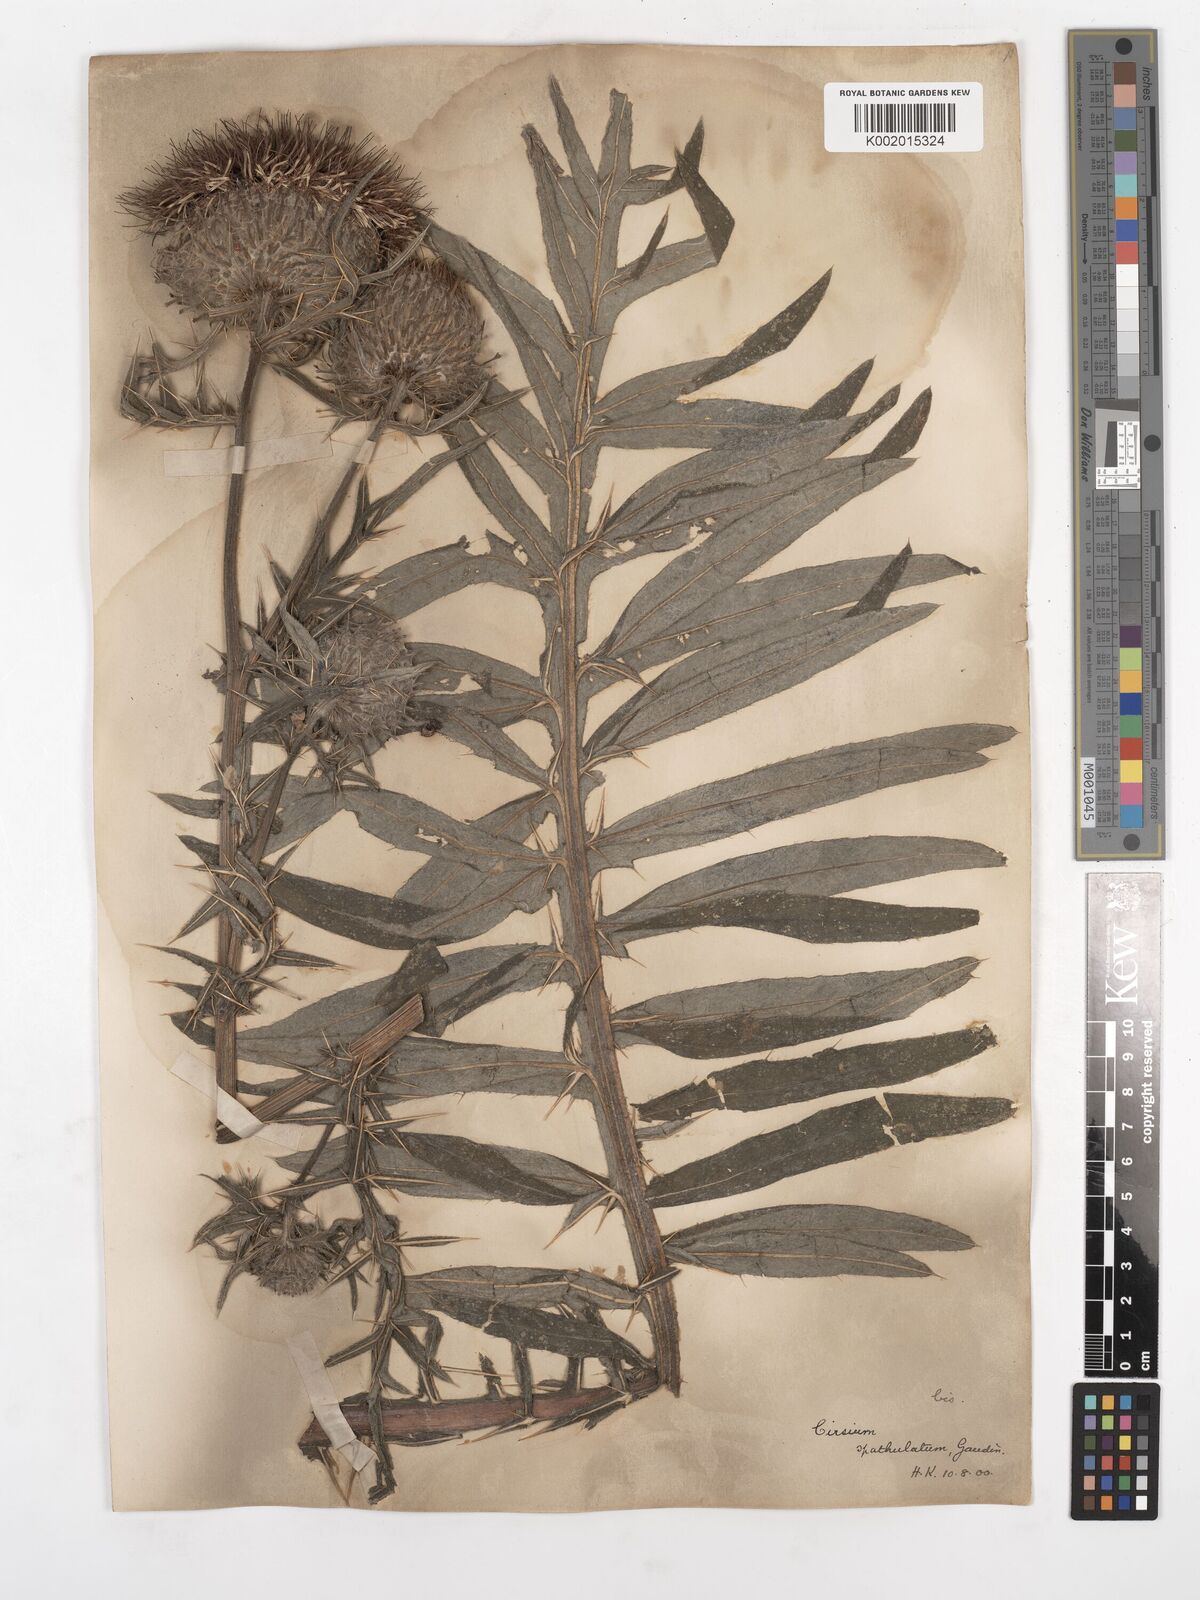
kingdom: Plantae
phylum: Tracheophyta
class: Magnoliopsida
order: Asterales
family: Asteraceae
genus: Lophiolepis
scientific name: Lophiolepis eriophora
